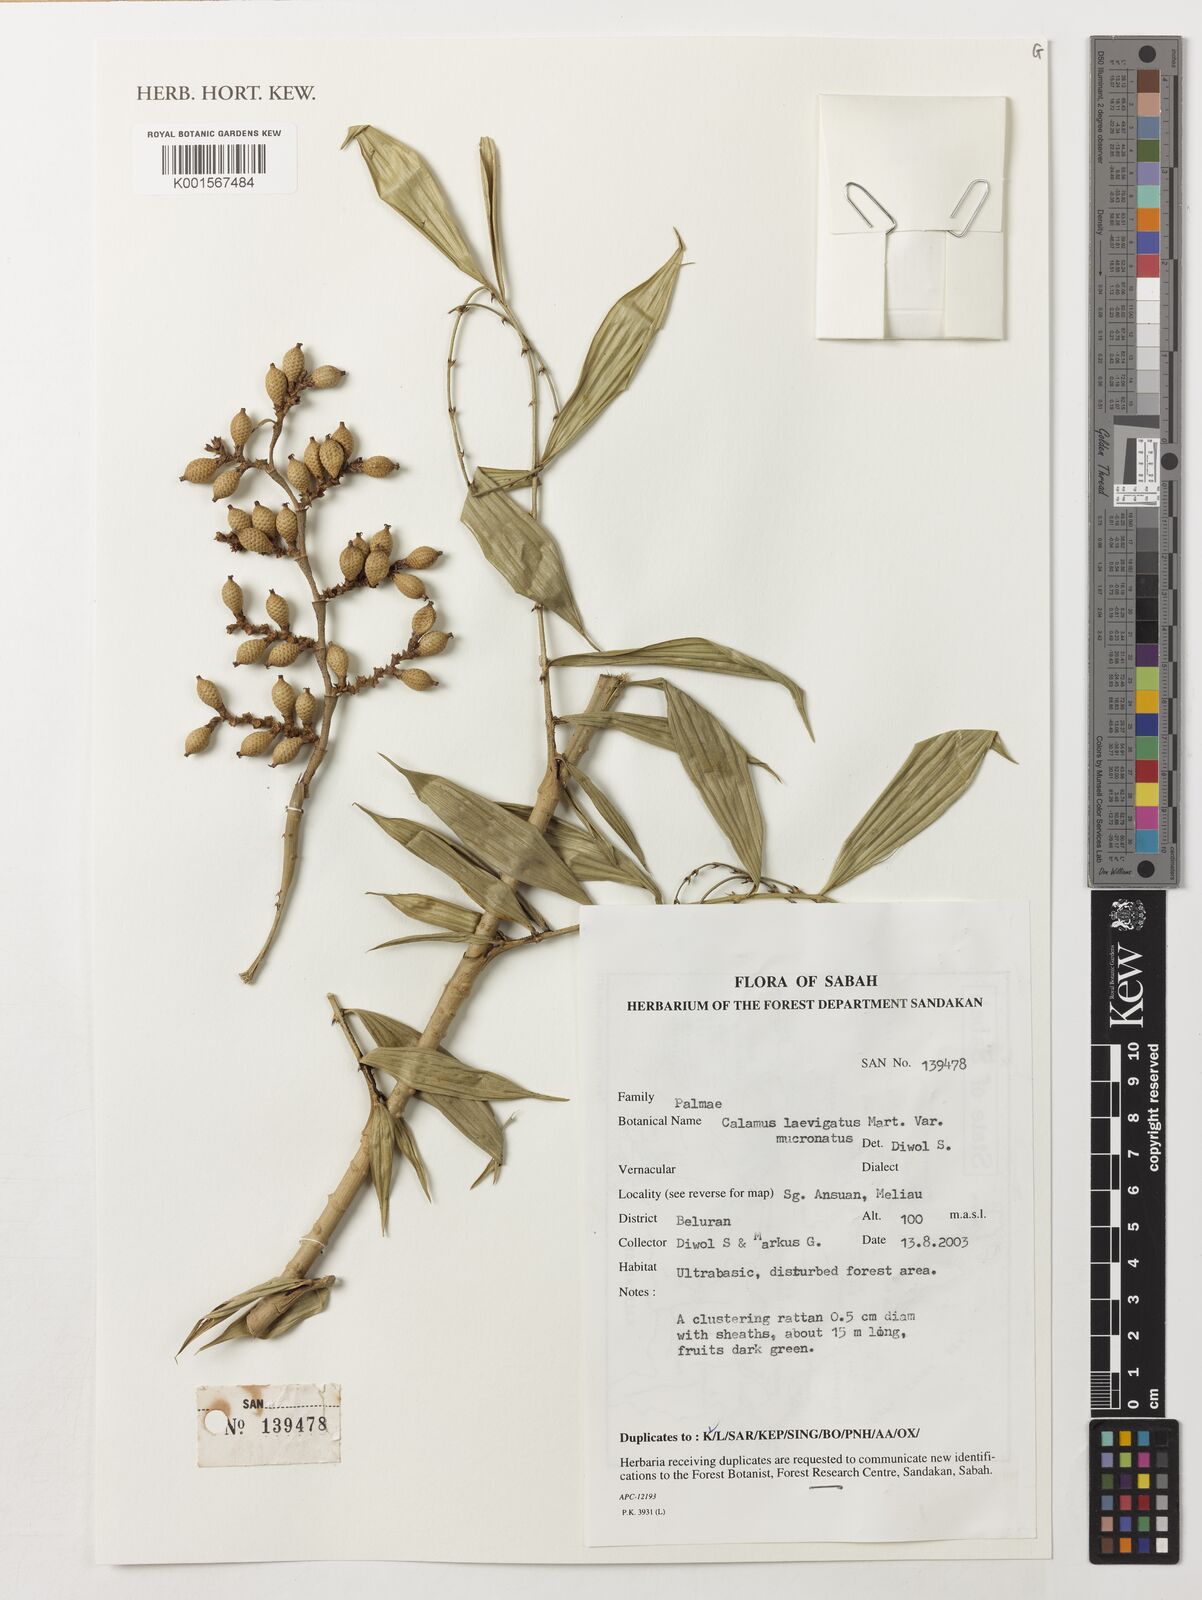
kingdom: Plantae
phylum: Tracheophyta
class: Liliopsida
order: Arecales
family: Arecaceae
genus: Calamus
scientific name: Calamus plicatus
